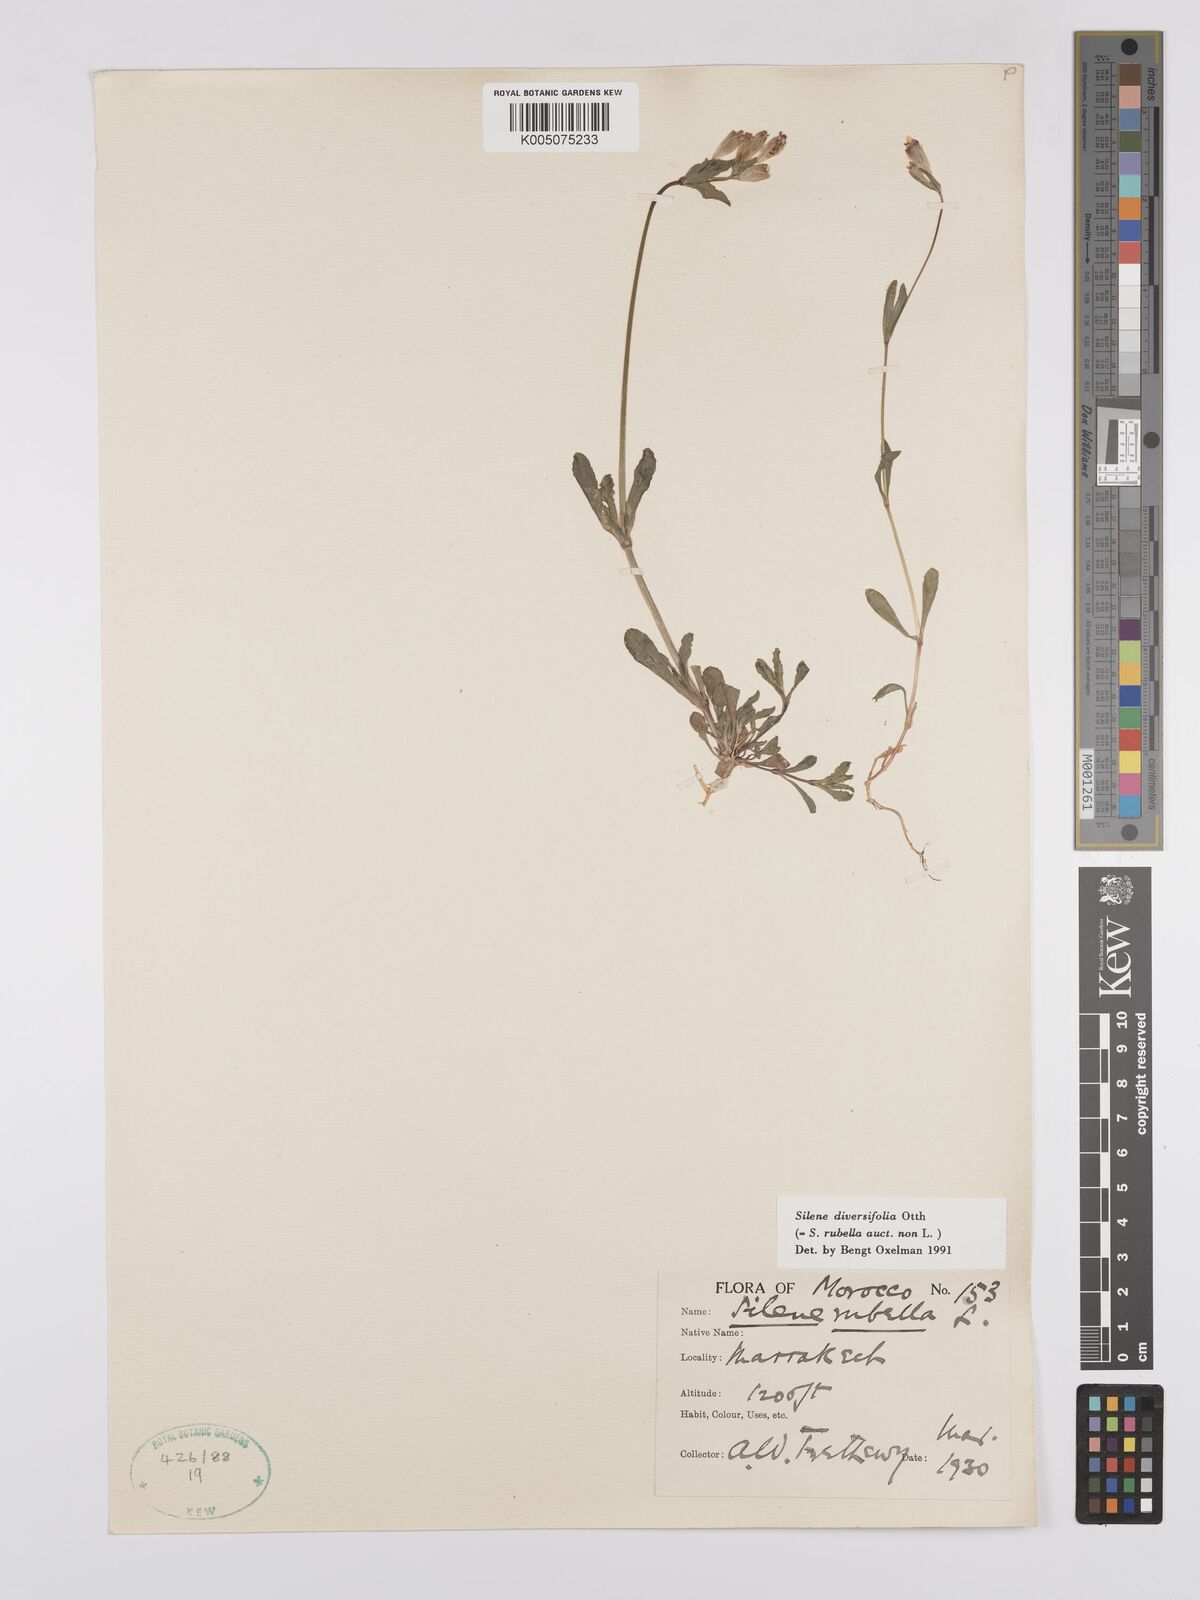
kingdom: Plantae
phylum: Tracheophyta
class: Magnoliopsida
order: Caryophyllales
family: Caryophyllaceae
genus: Silene
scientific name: Silene rubella
